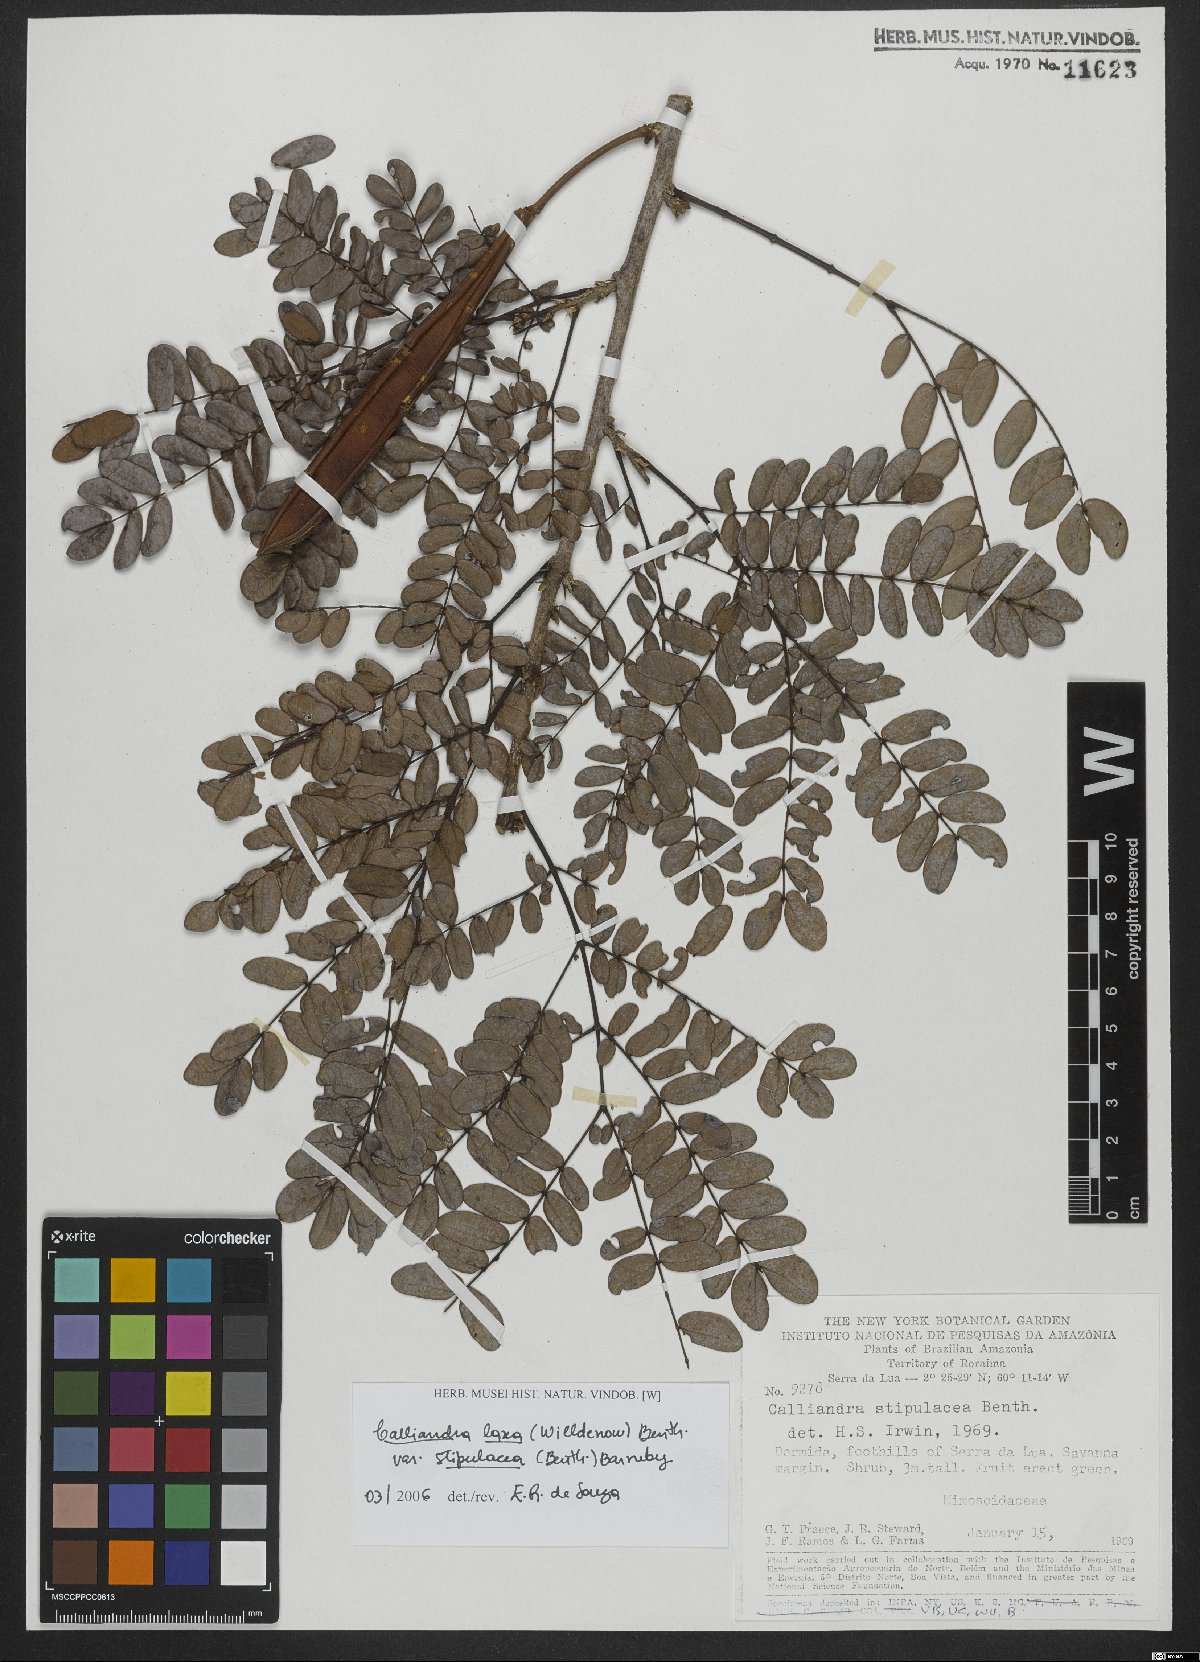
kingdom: Plantae
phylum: Tracheophyta
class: Magnoliopsida
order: Fabales
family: Fabaceae
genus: Calliandra
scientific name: Calliandra laxa
